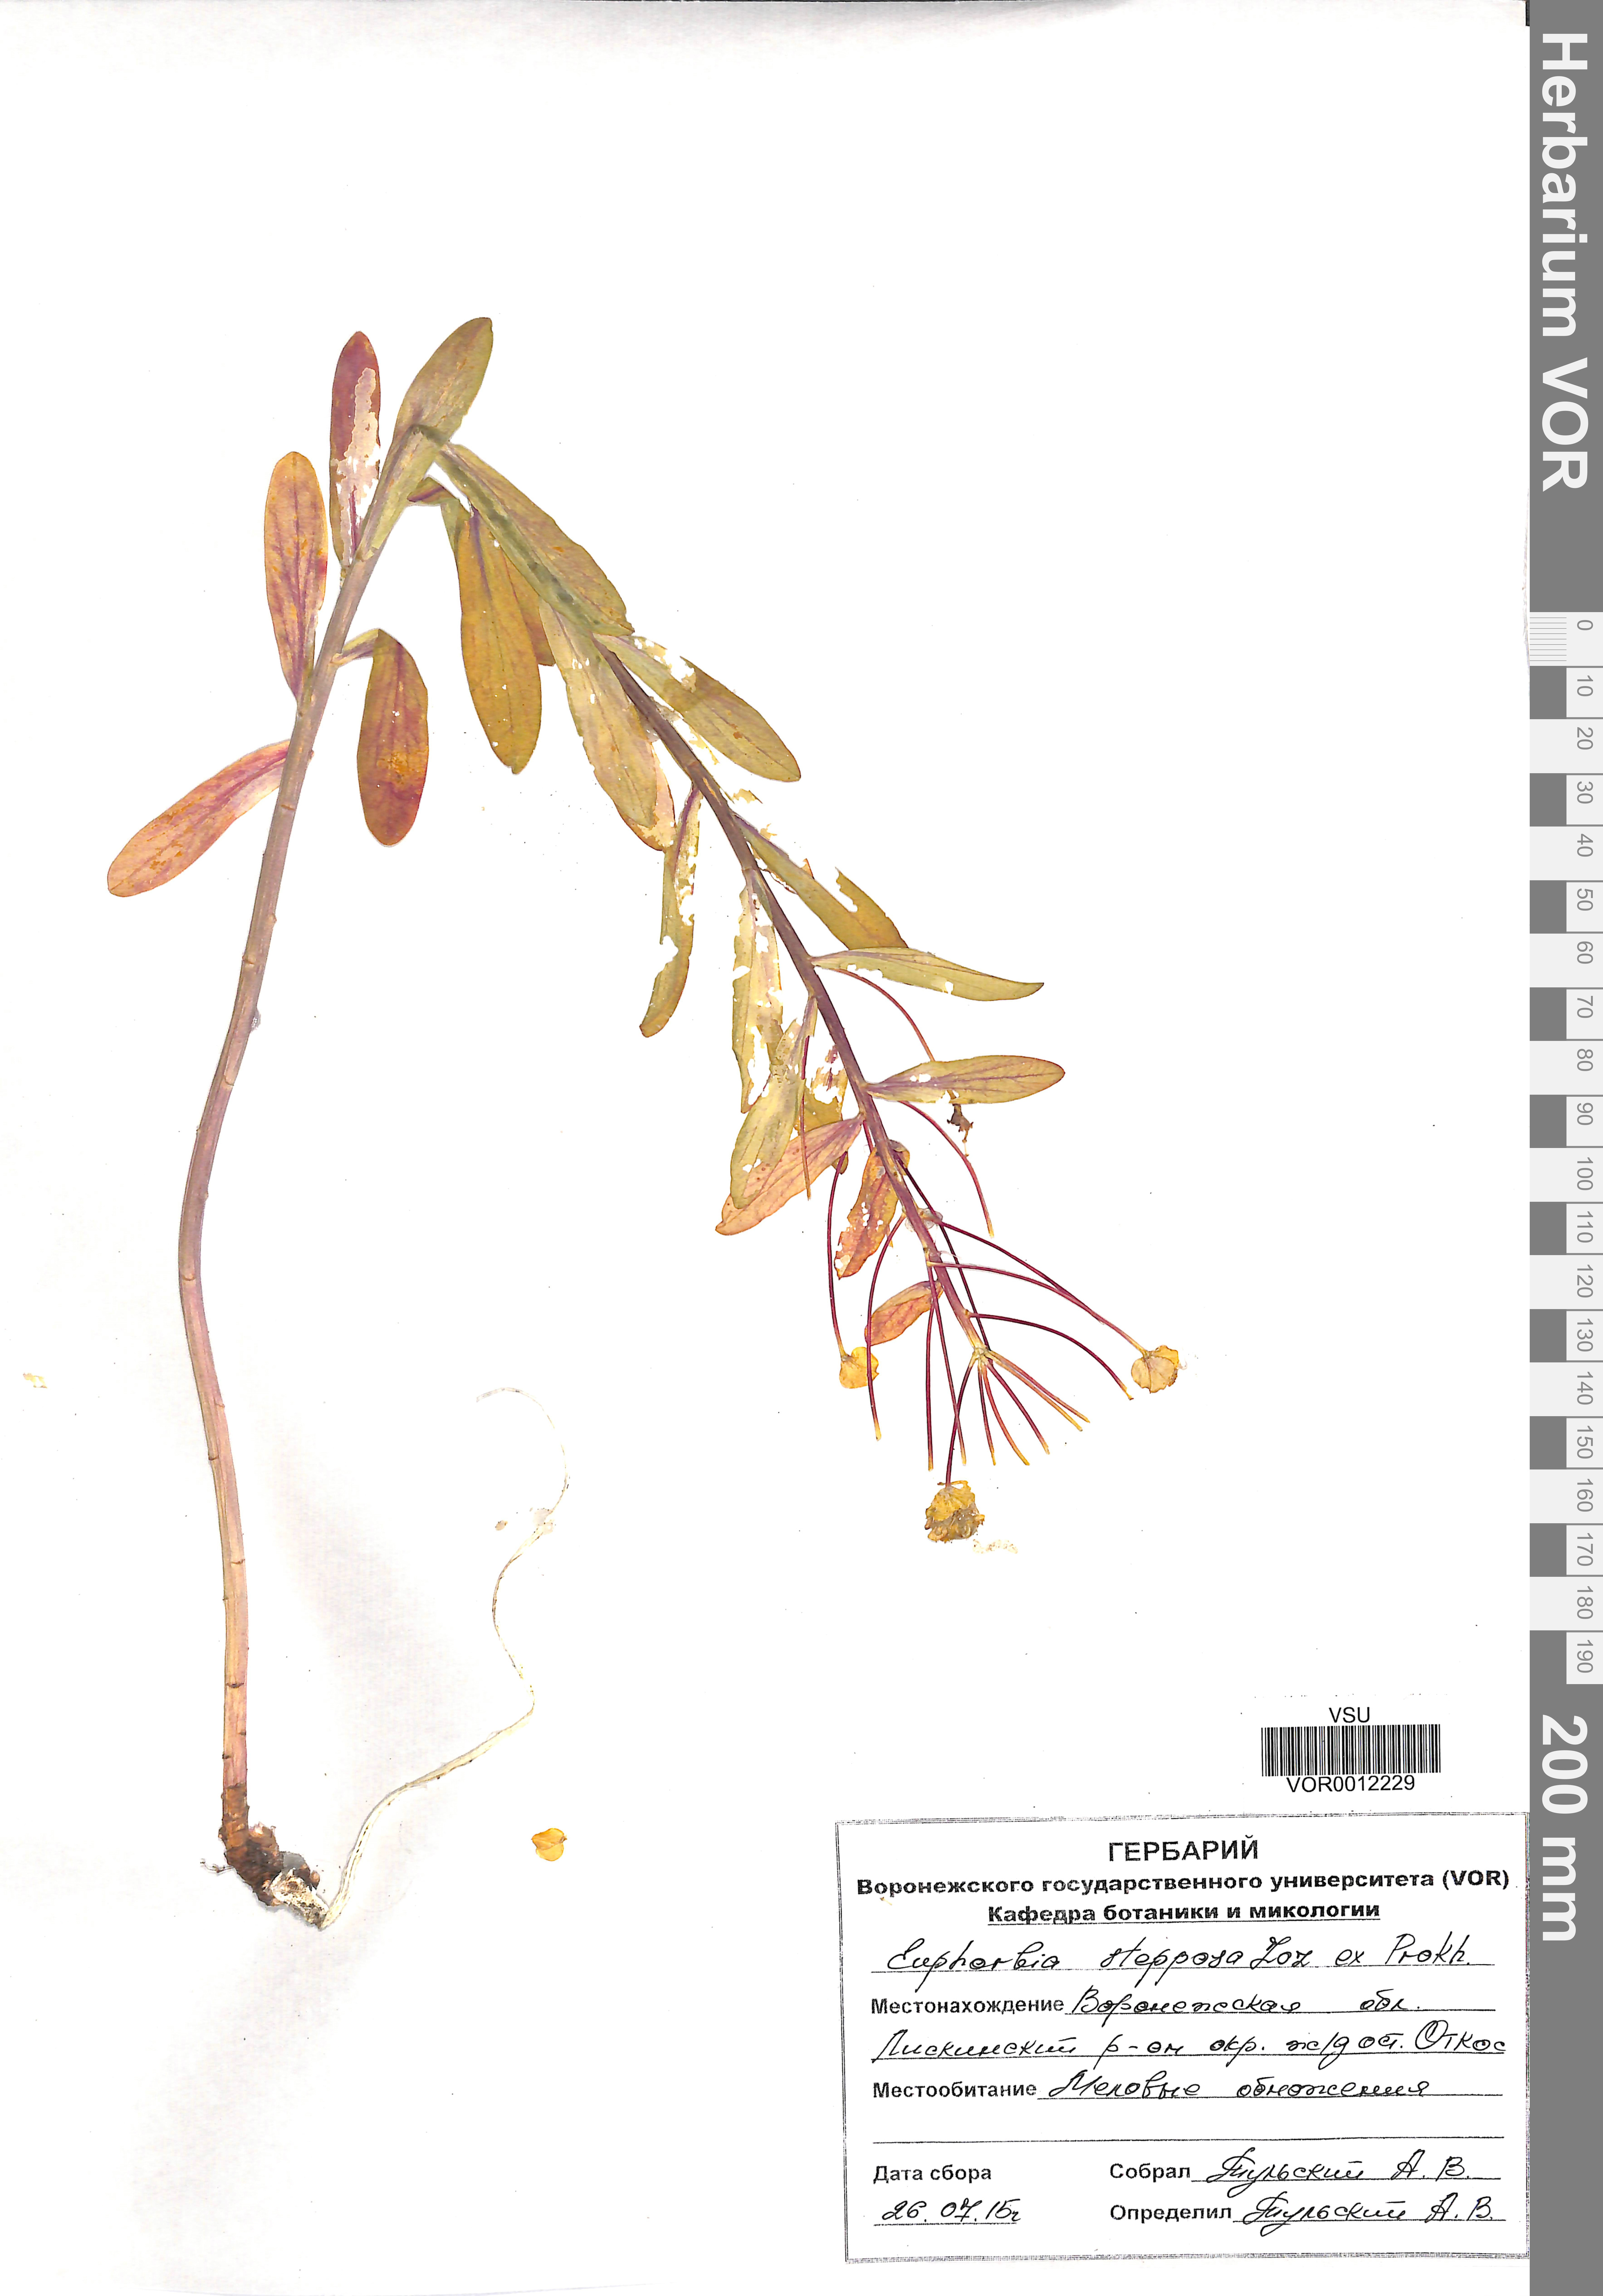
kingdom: Plantae
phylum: Tracheophyta
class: Magnoliopsida
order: Malpighiales
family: Euphorbiaceae
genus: Euphorbia
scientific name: Euphorbia stepposa
